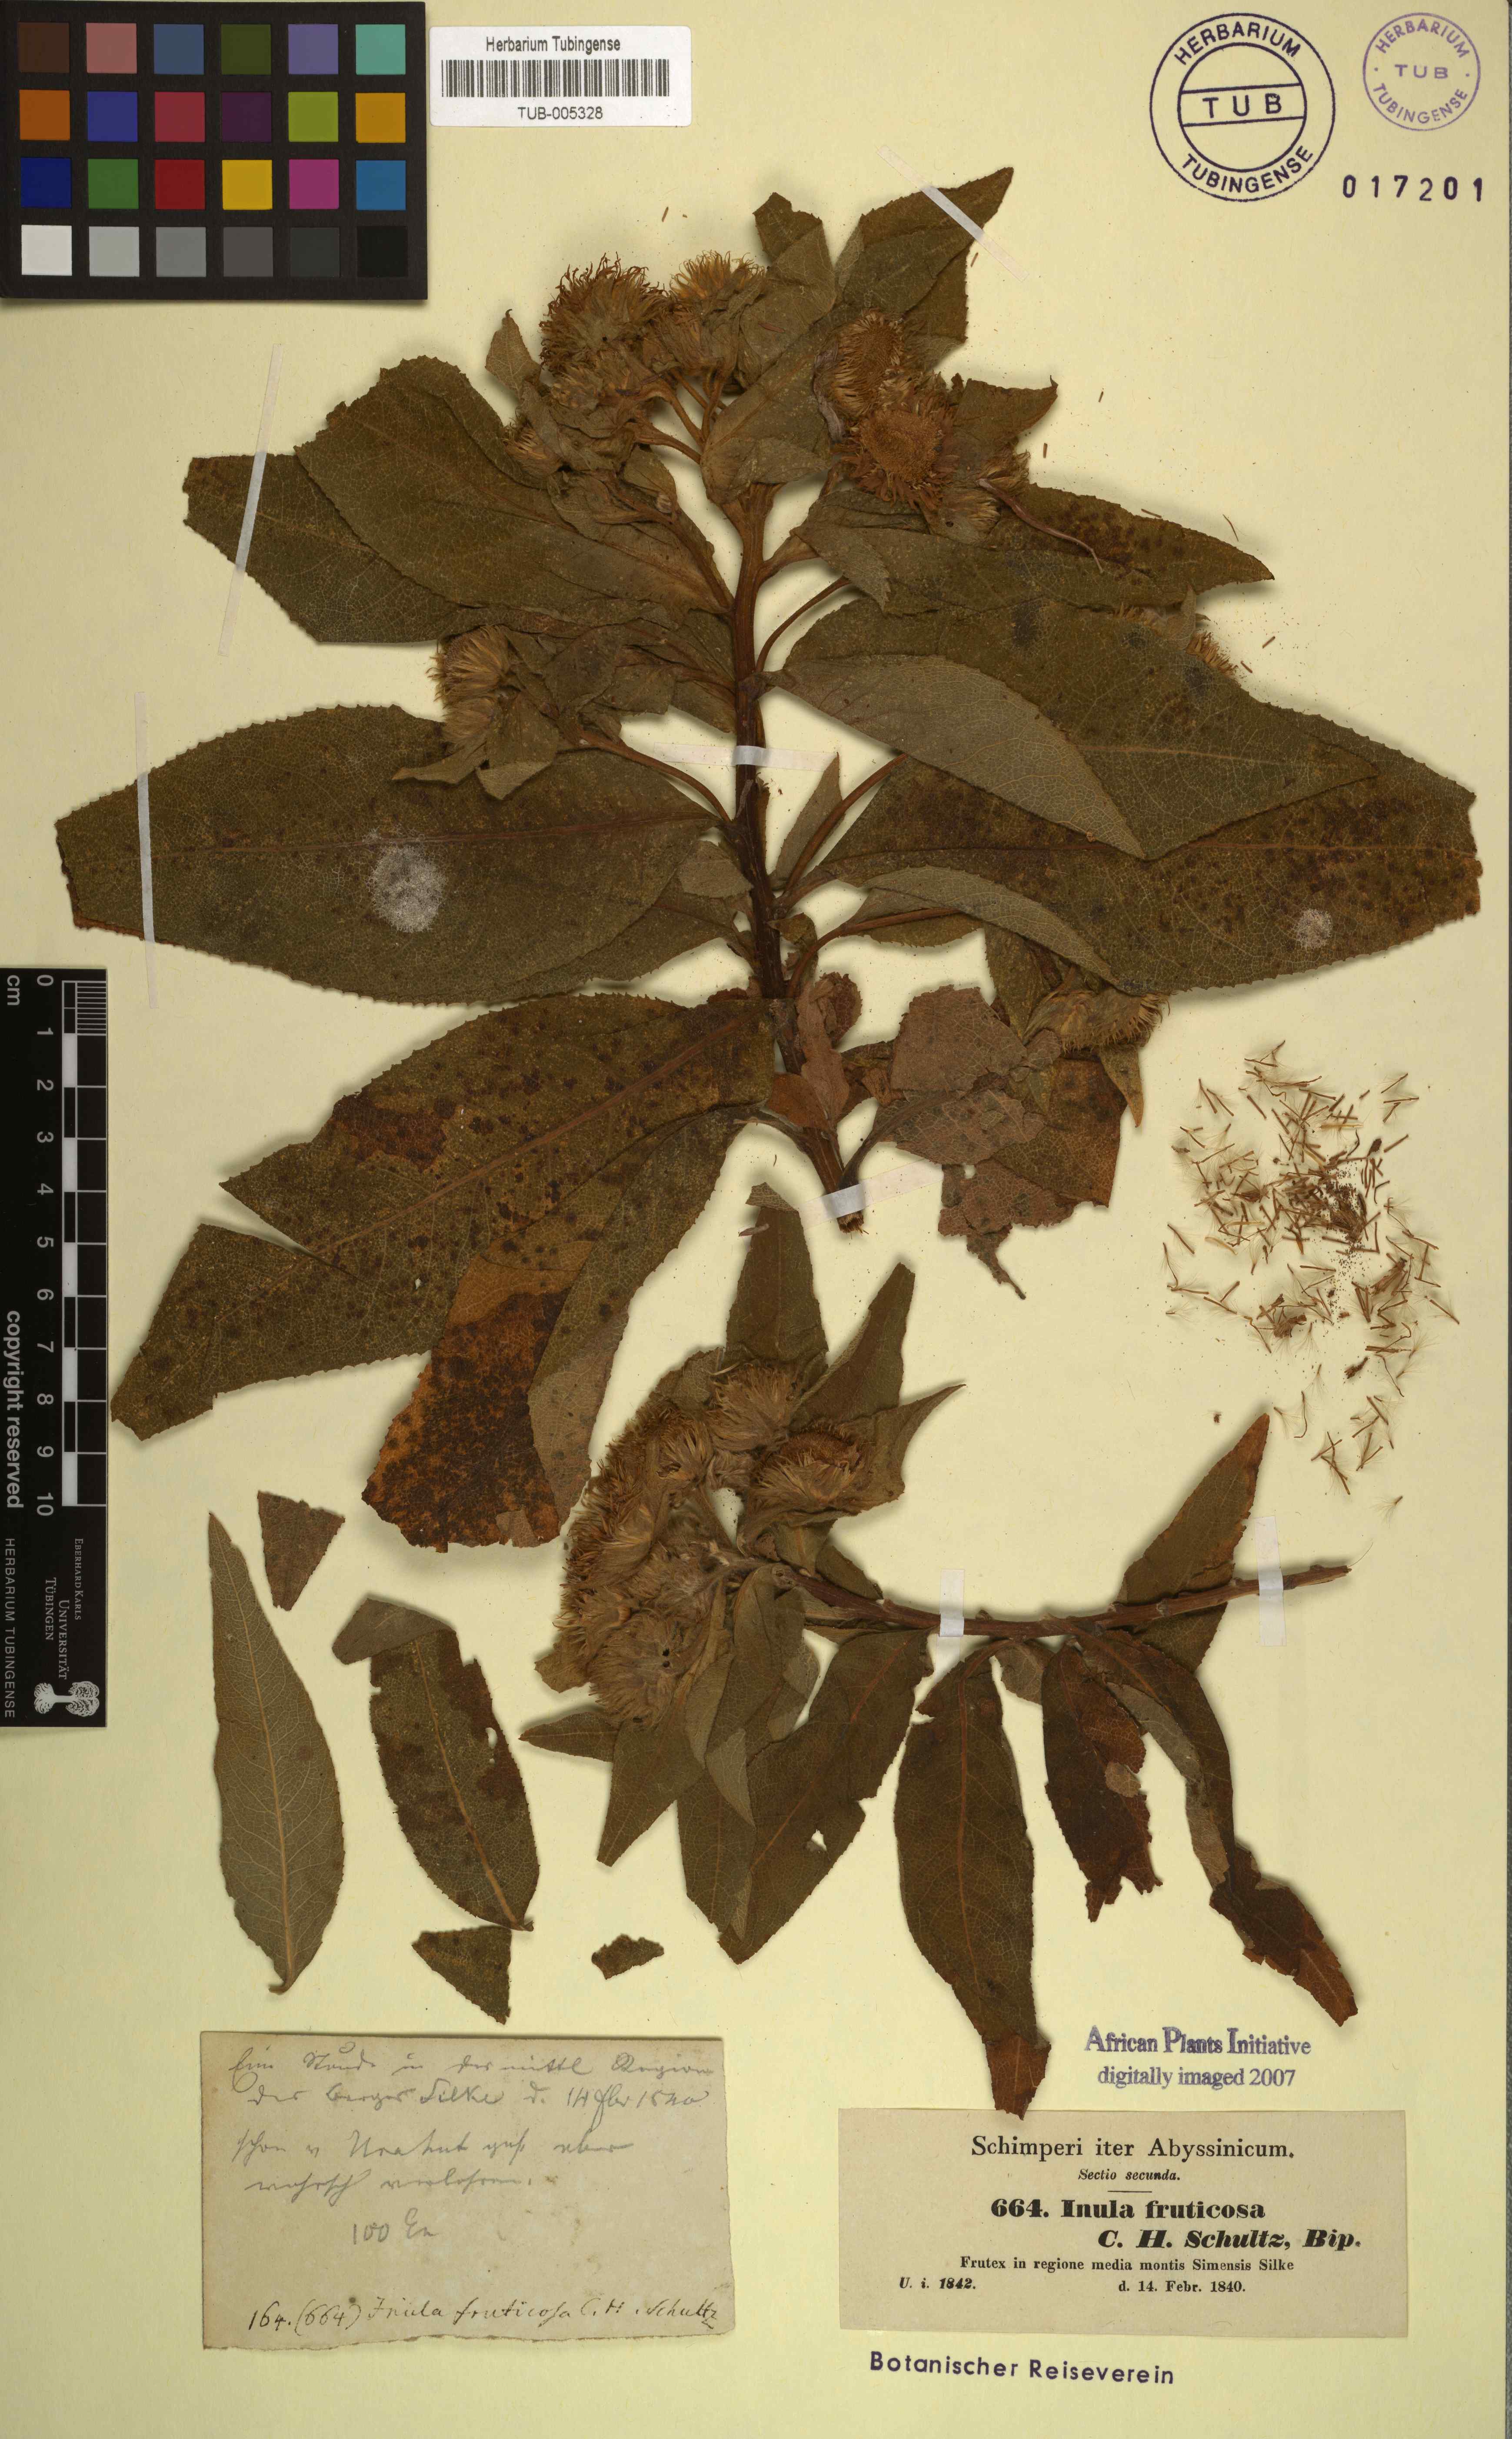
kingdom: Plantae
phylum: Tracheophyta
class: Magnoliopsida
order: Asterales
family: Asteraceae
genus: Inula
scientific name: Inula arbuscula
